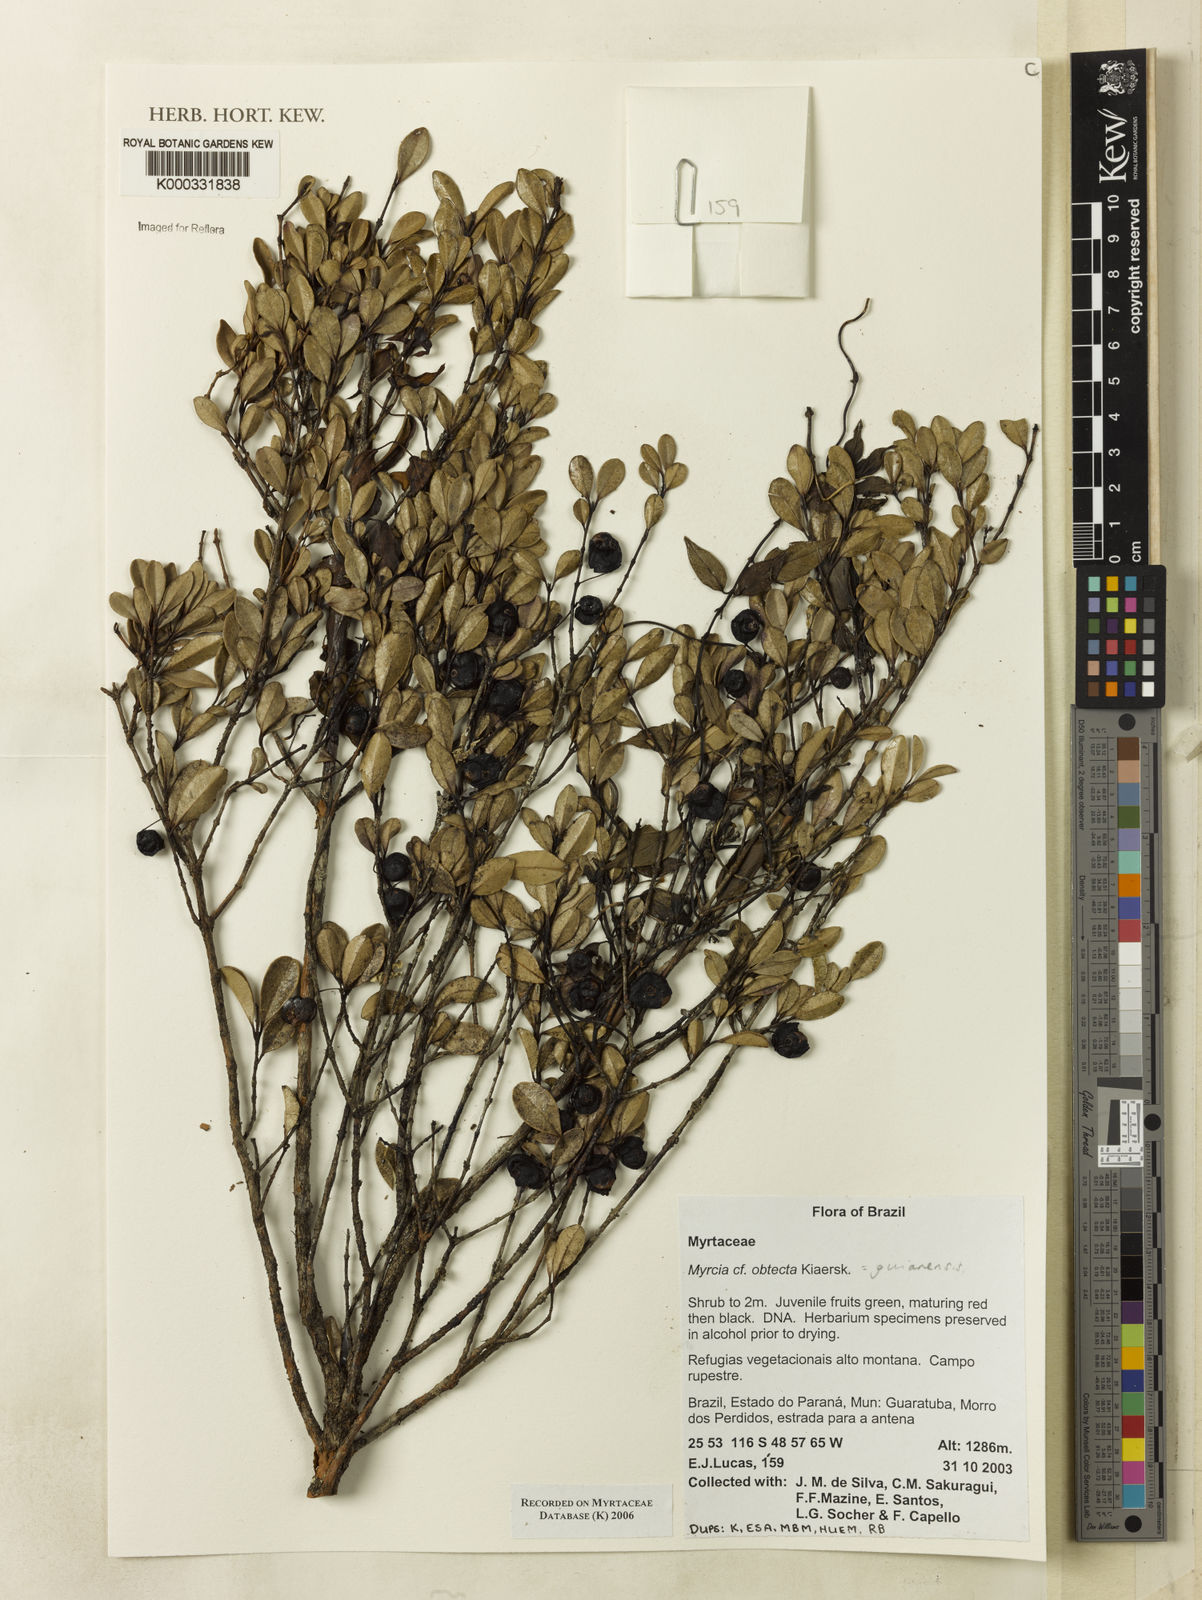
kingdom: Plantae
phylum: Tracheophyta
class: Magnoliopsida
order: Myrtales
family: Myrtaceae
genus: Myrcia
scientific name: Myrcia guianensis
